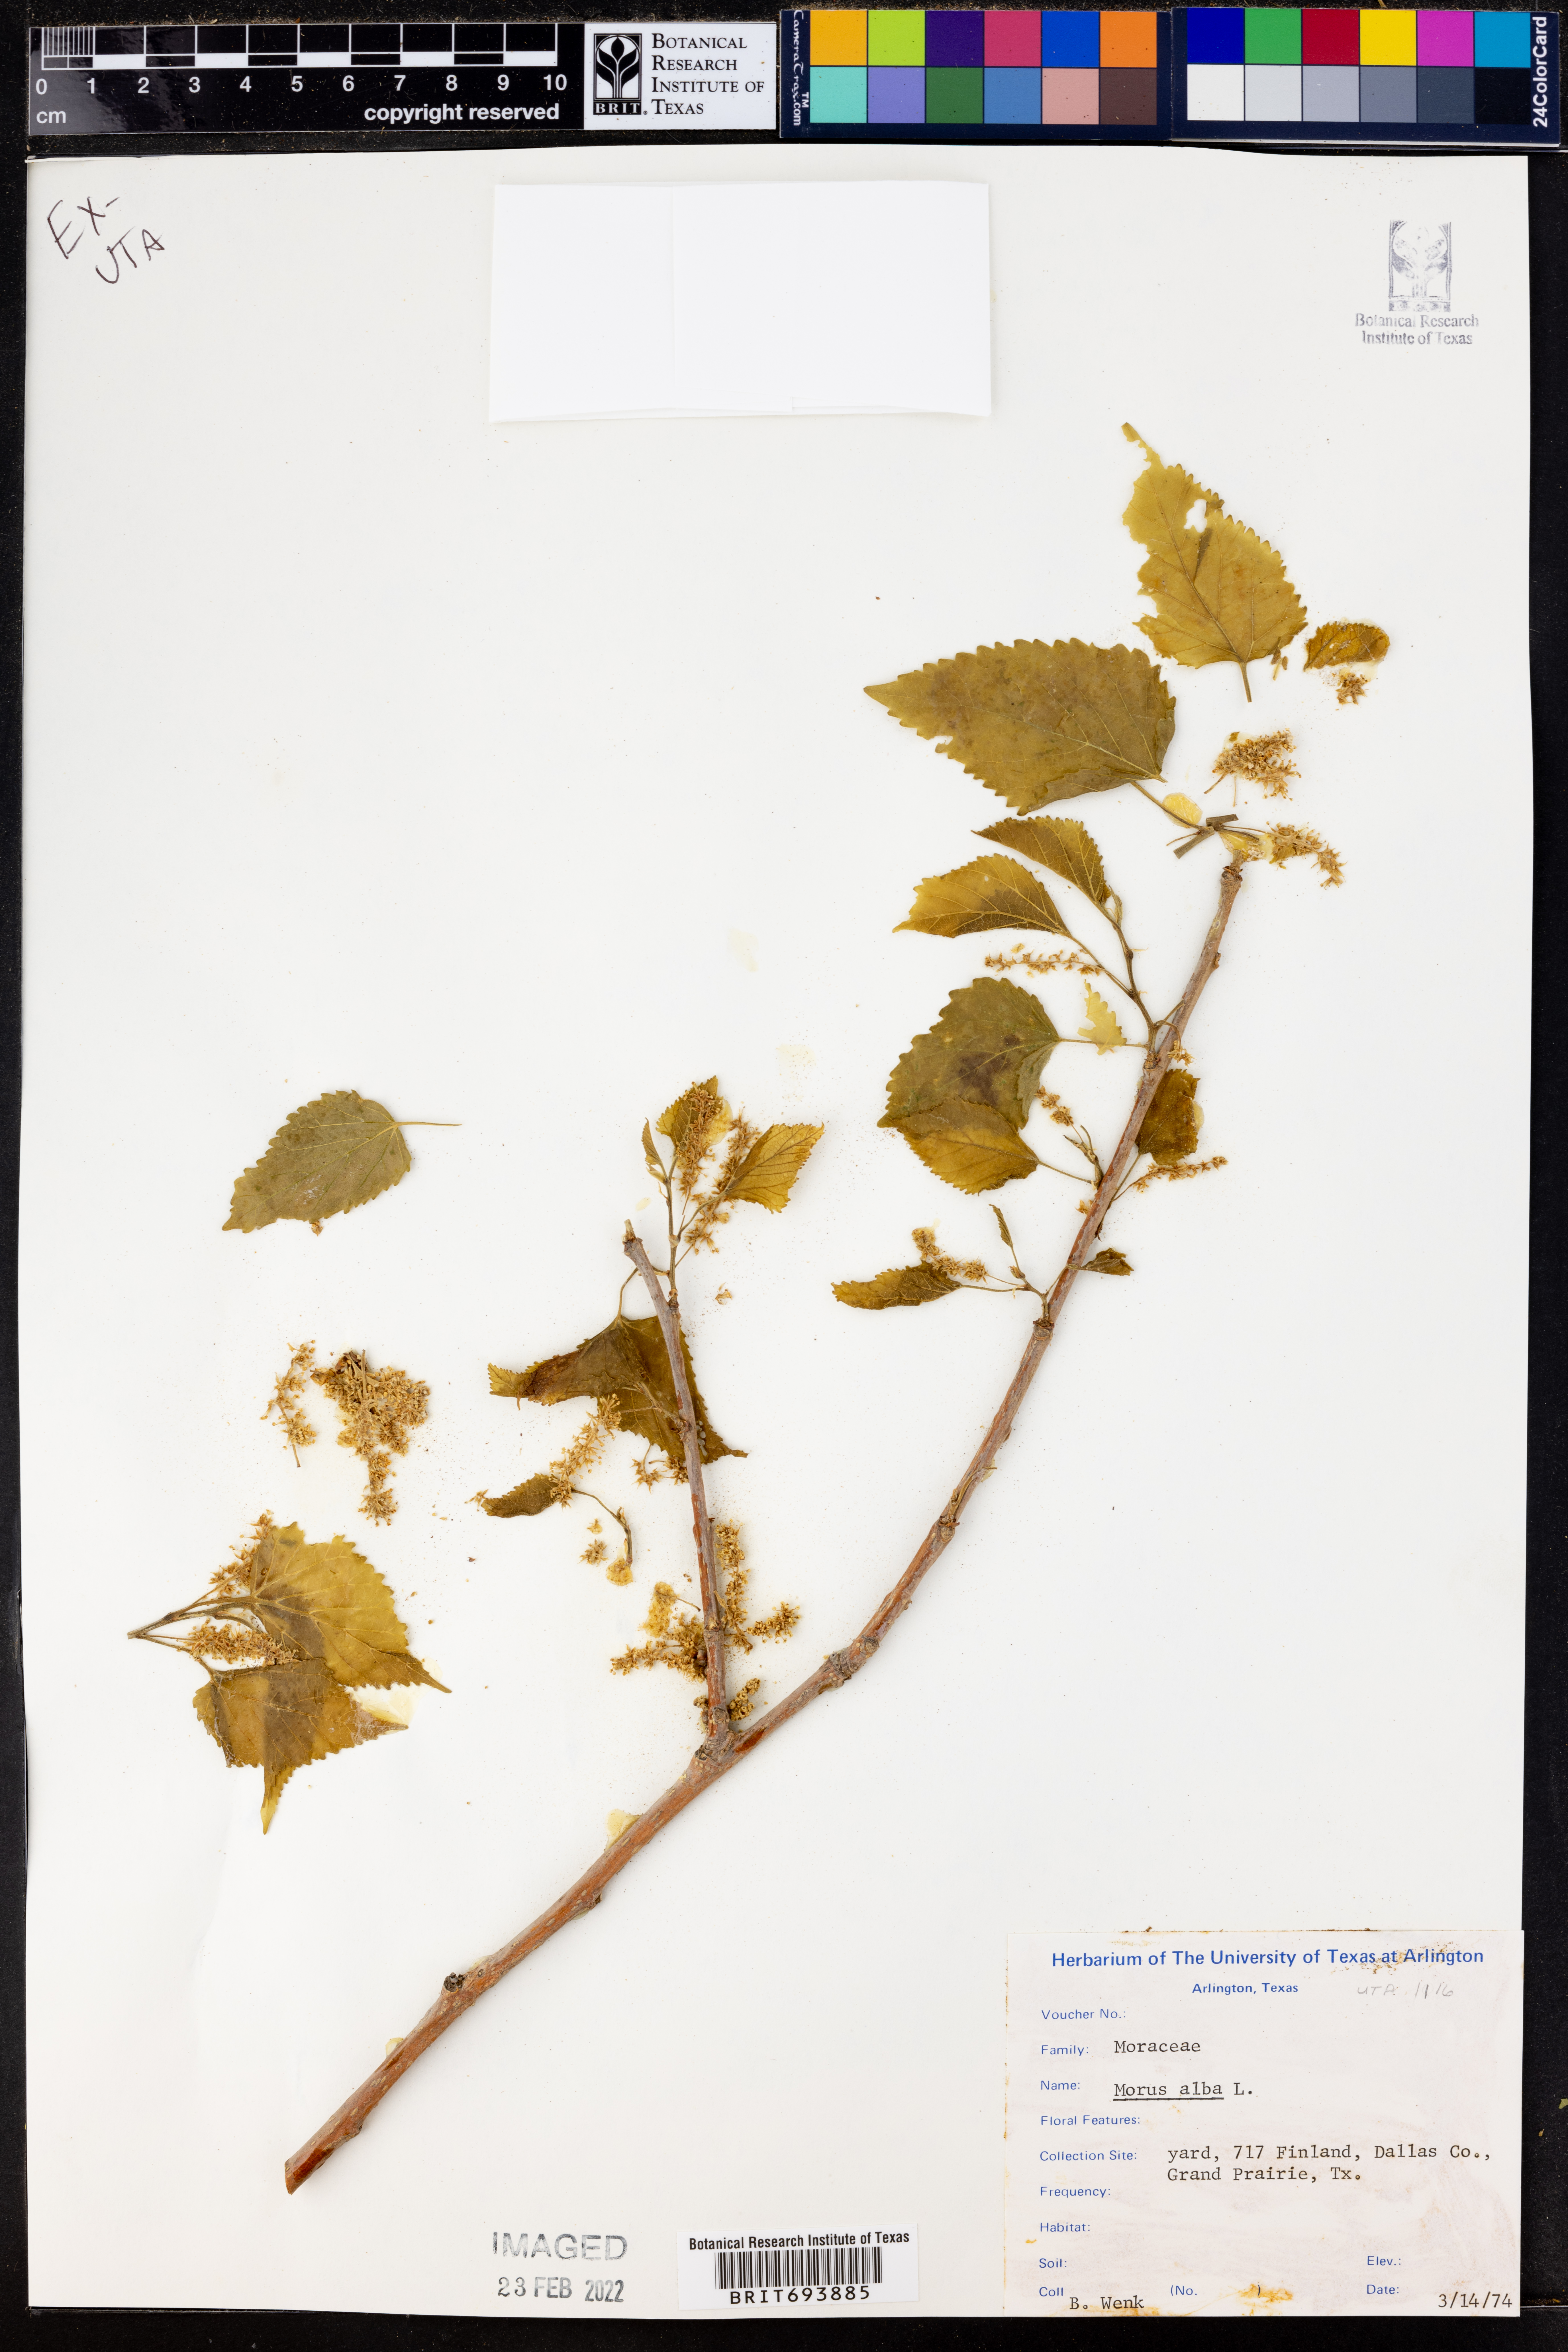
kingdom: Plantae
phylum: Tracheophyta
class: Magnoliopsida
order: Rosales
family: Moraceae
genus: Morus
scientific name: Morus alba
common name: White mulberry
